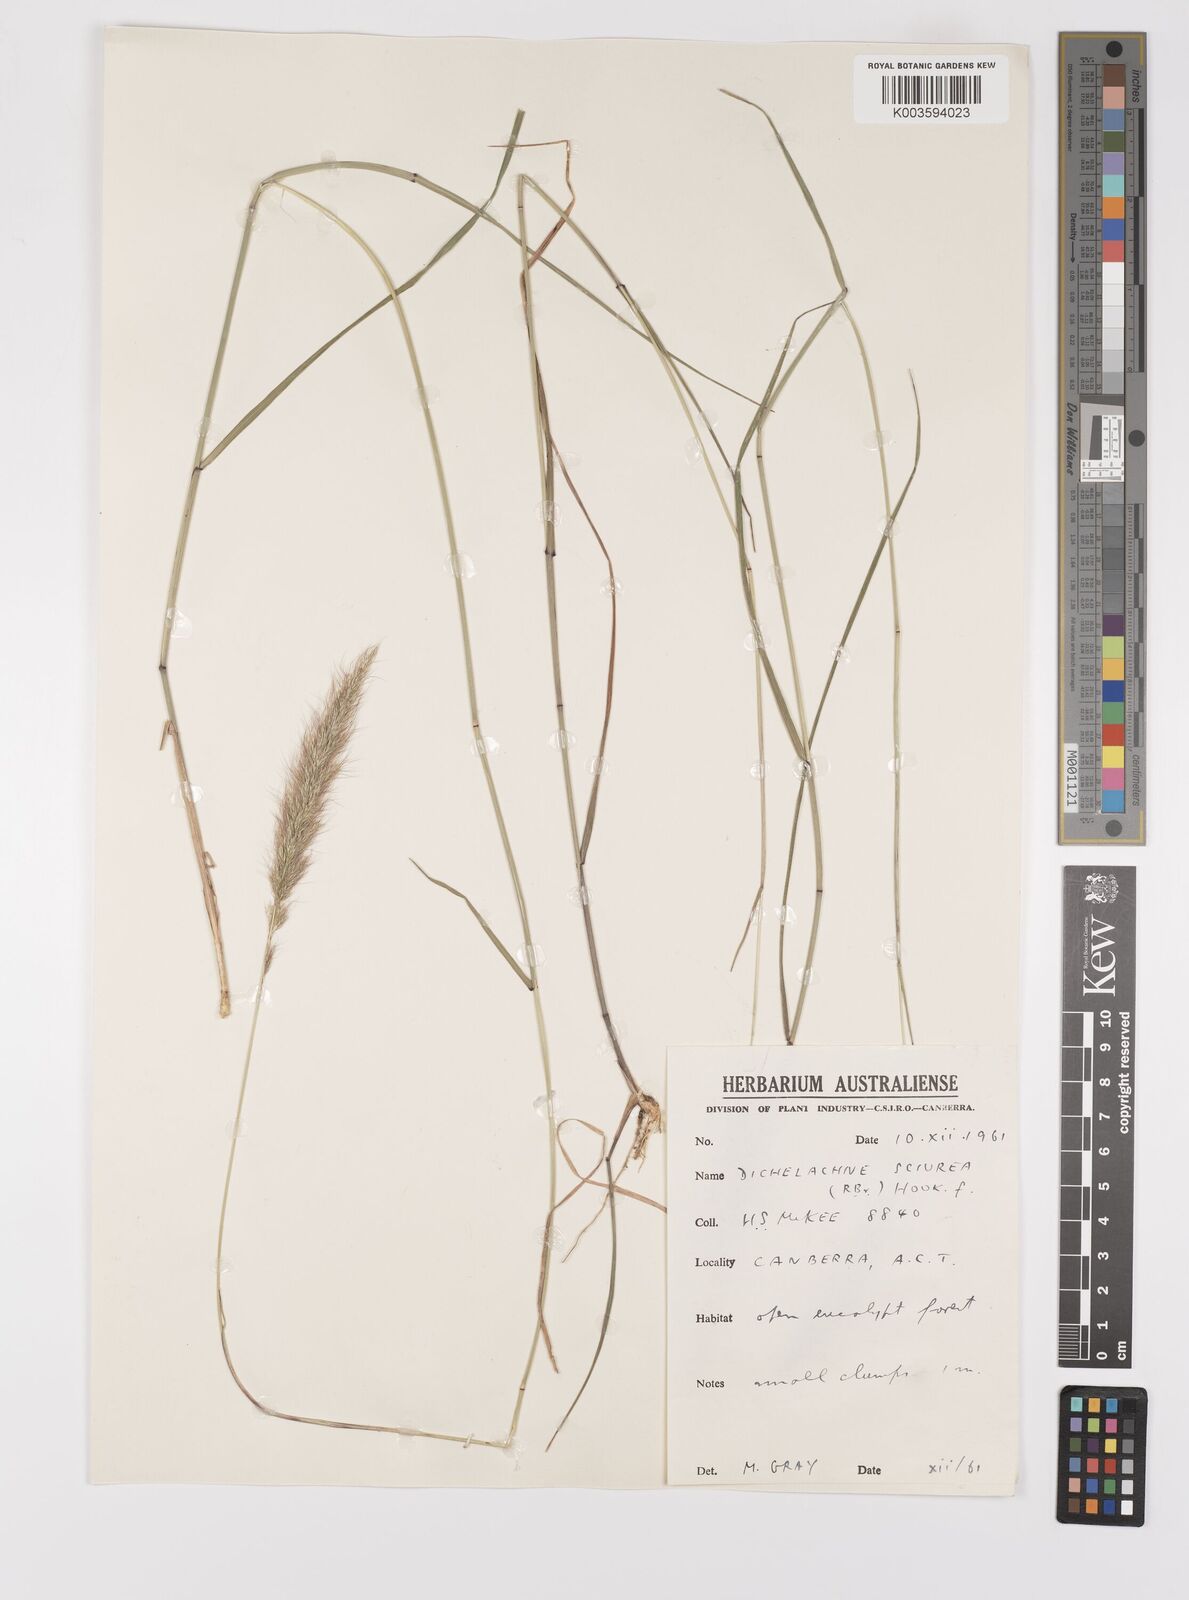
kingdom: Plantae
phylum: Tracheophyta
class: Liliopsida
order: Poales
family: Poaceae
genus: Dichelachne
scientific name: Dichelachne micrantha
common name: Plumegrass
